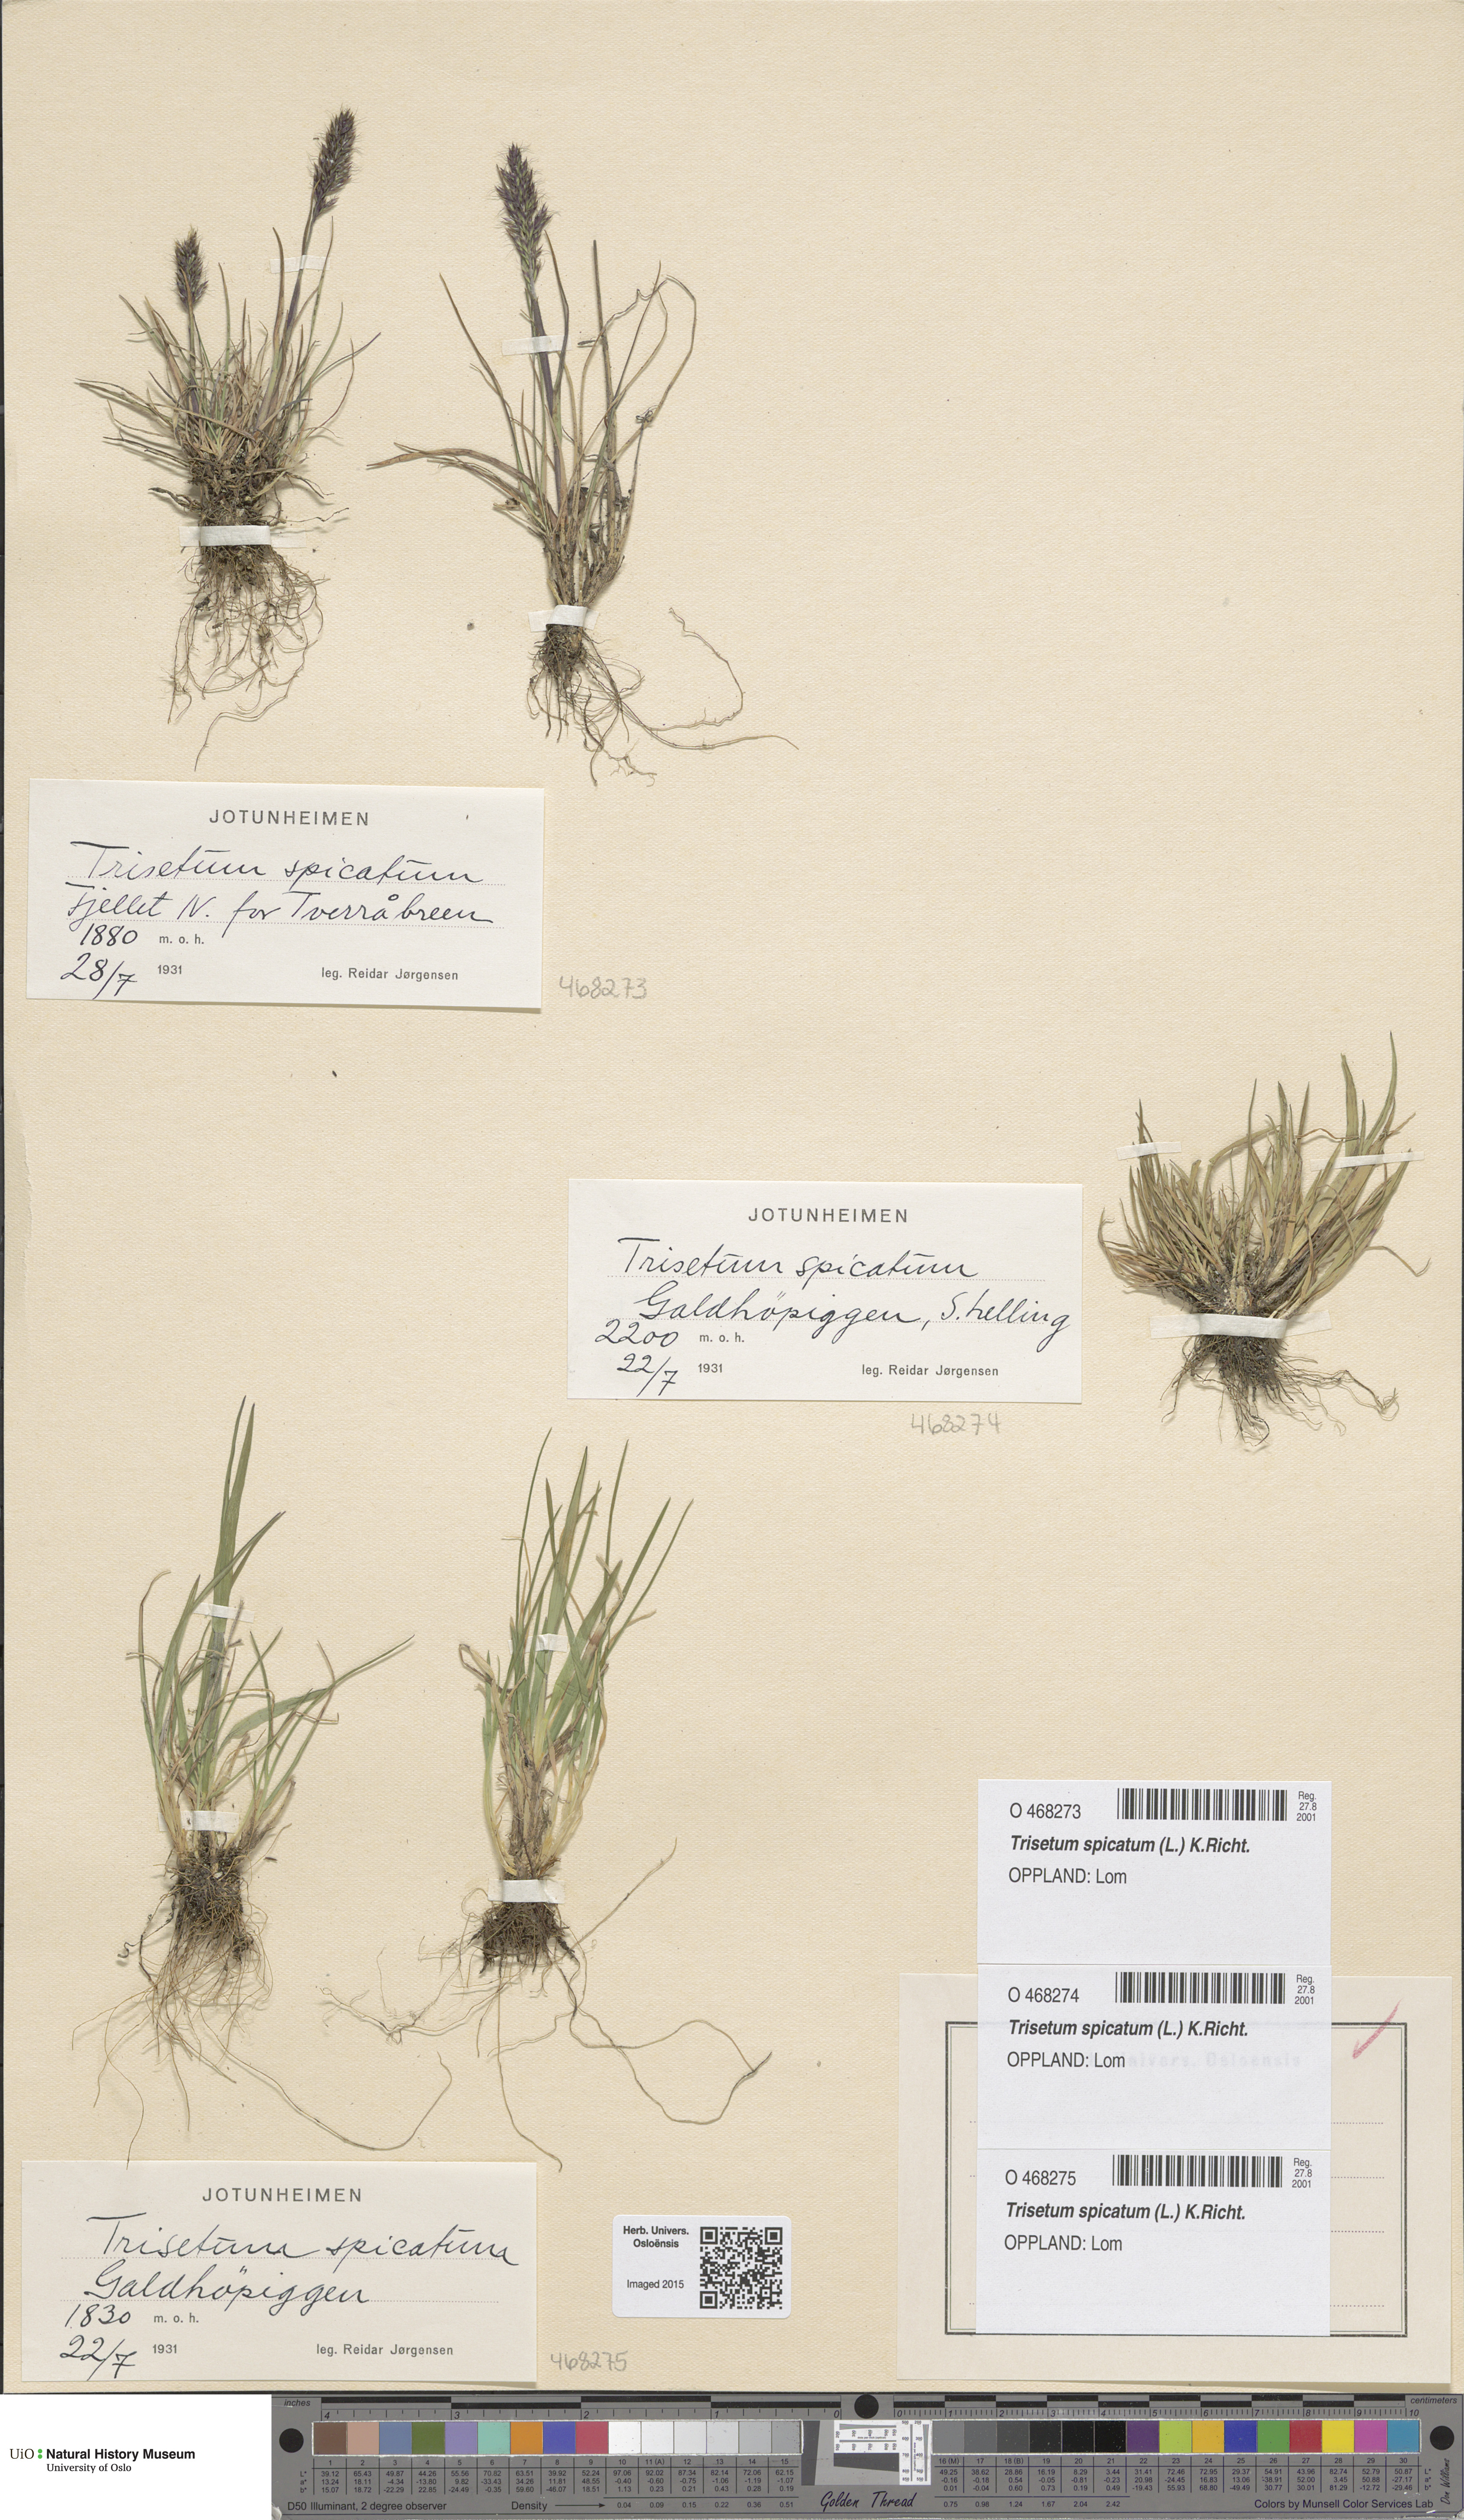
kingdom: Plantae
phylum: Tracheophyta
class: Liliopsida
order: Poales
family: Poaceae
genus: Koeleria
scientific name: Koeleria spicata
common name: Mountain trisetum
